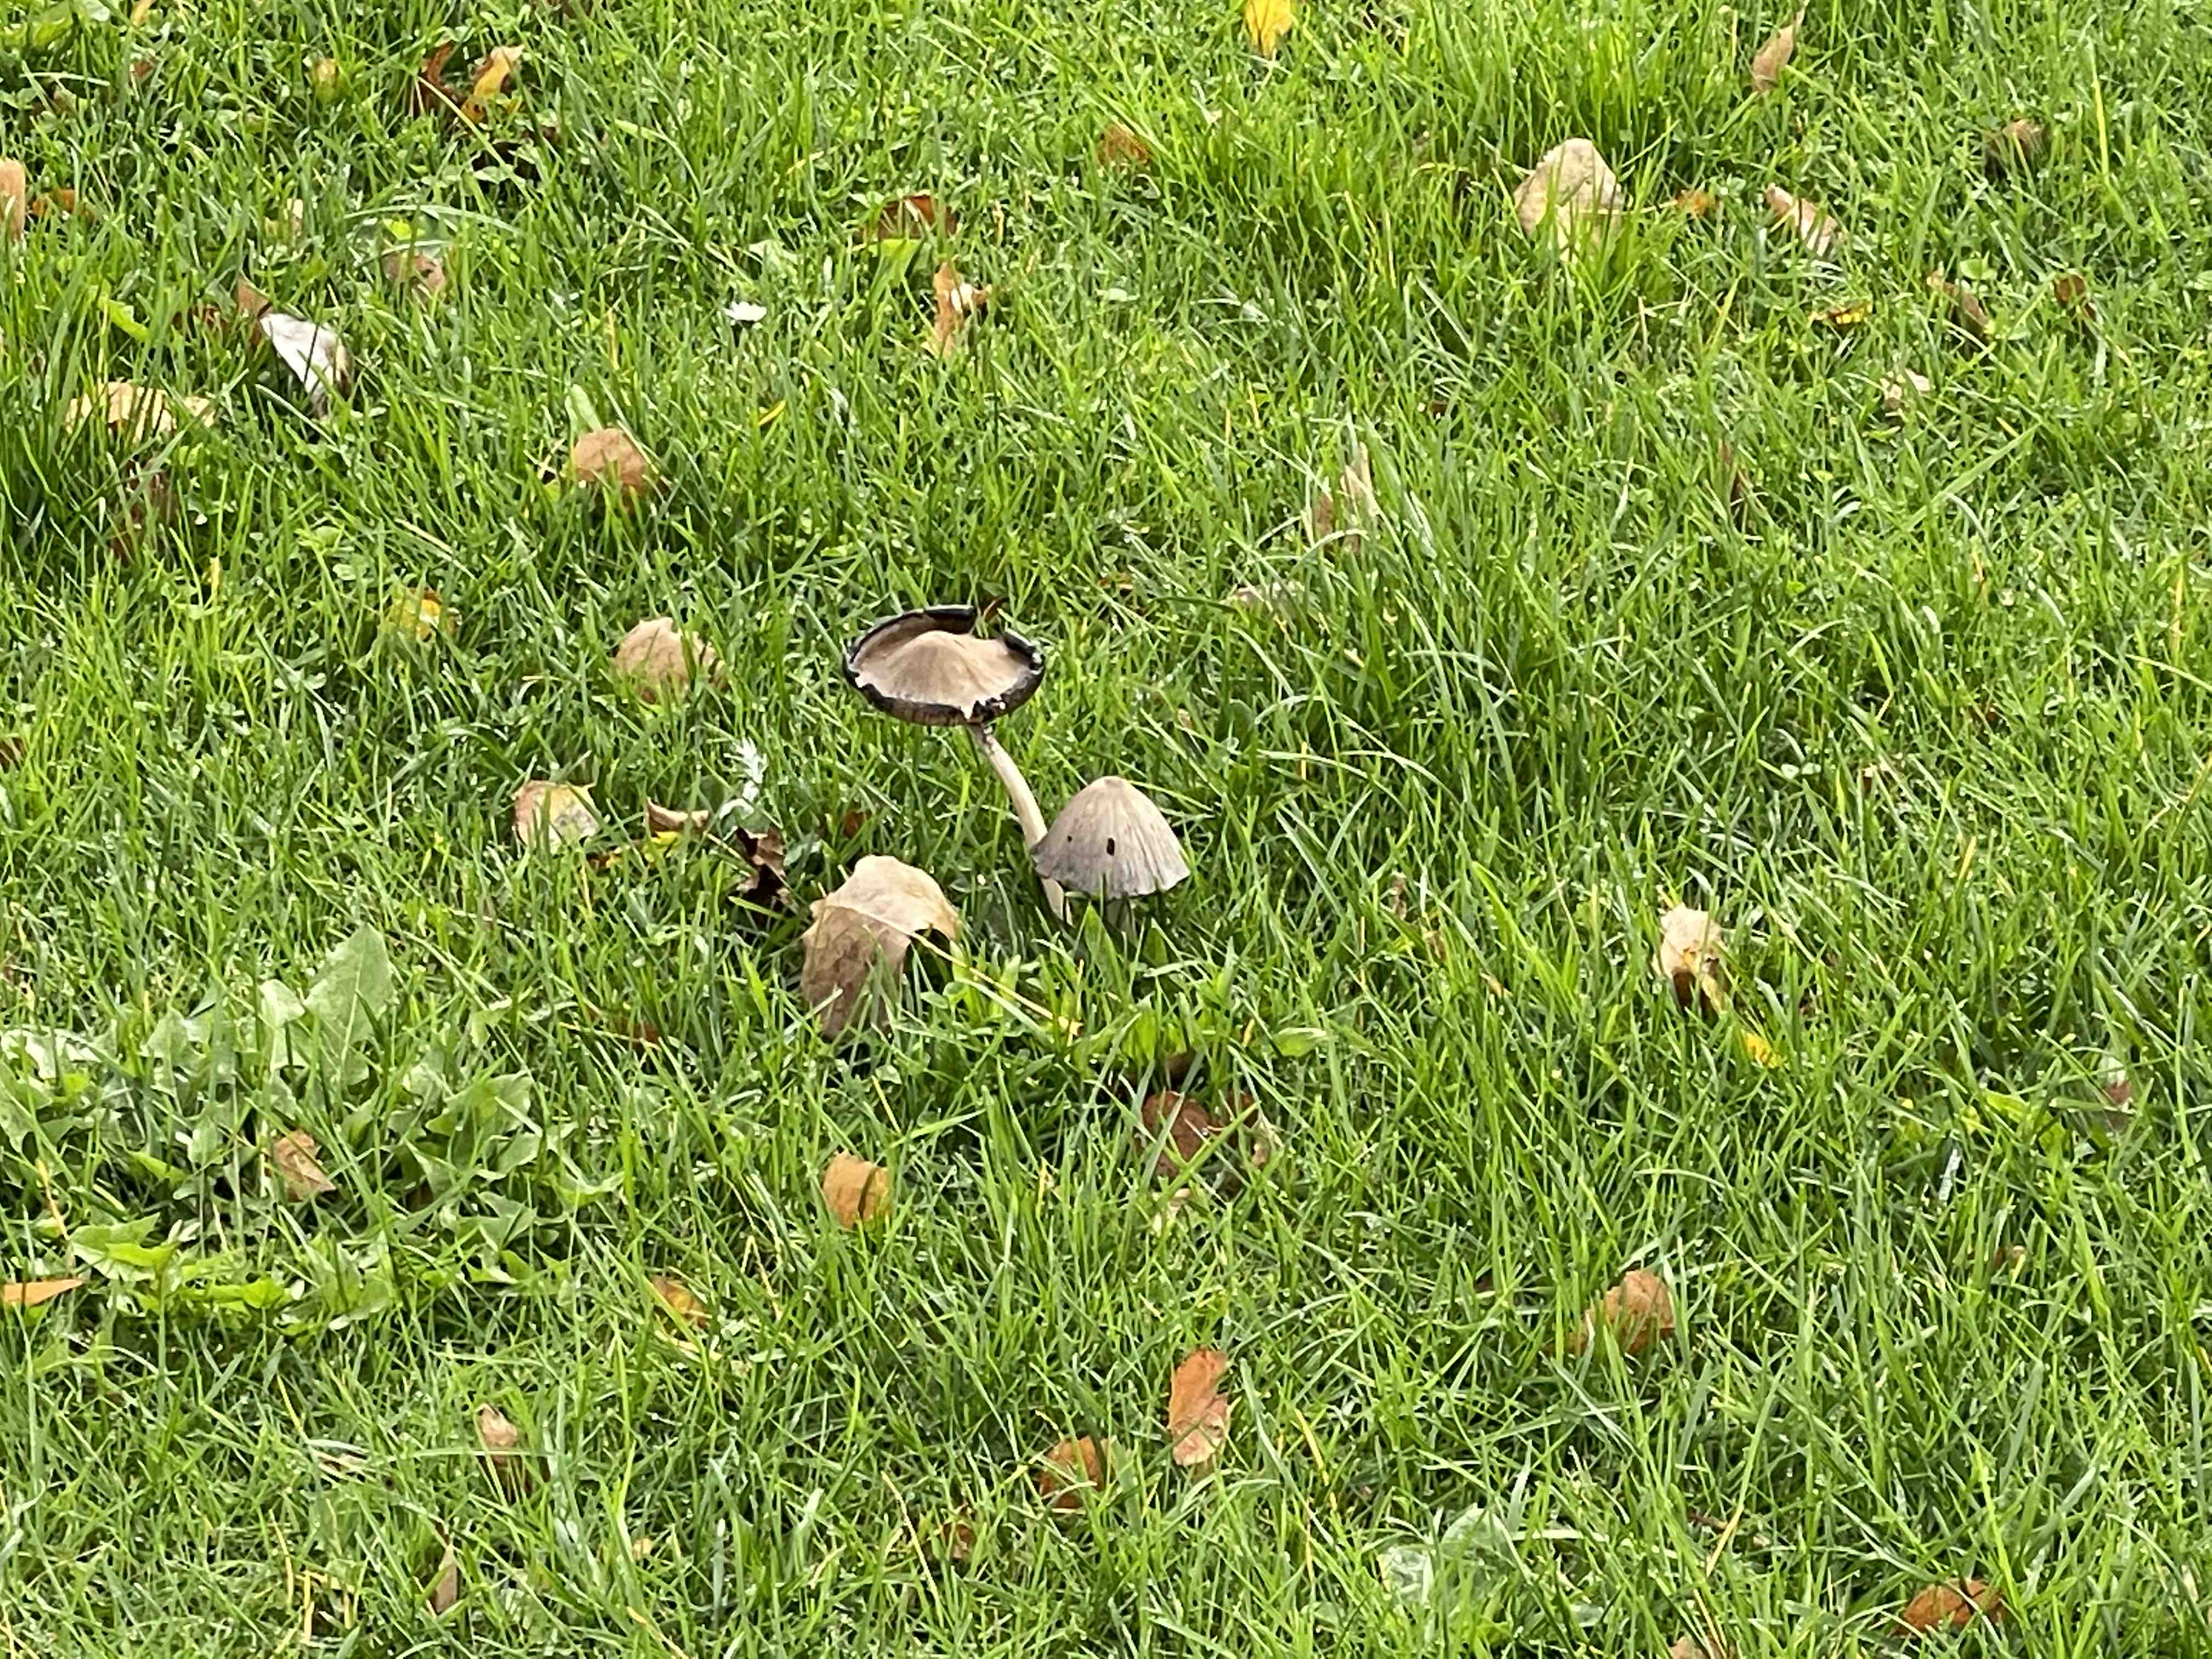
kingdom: Fungi
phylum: Basidiomycota
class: Agaricomycetes
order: Agaricales
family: Psathyrellaceae
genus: Coprinopsis
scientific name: Coprinopsis atramentaria
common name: almindelig blækhat
